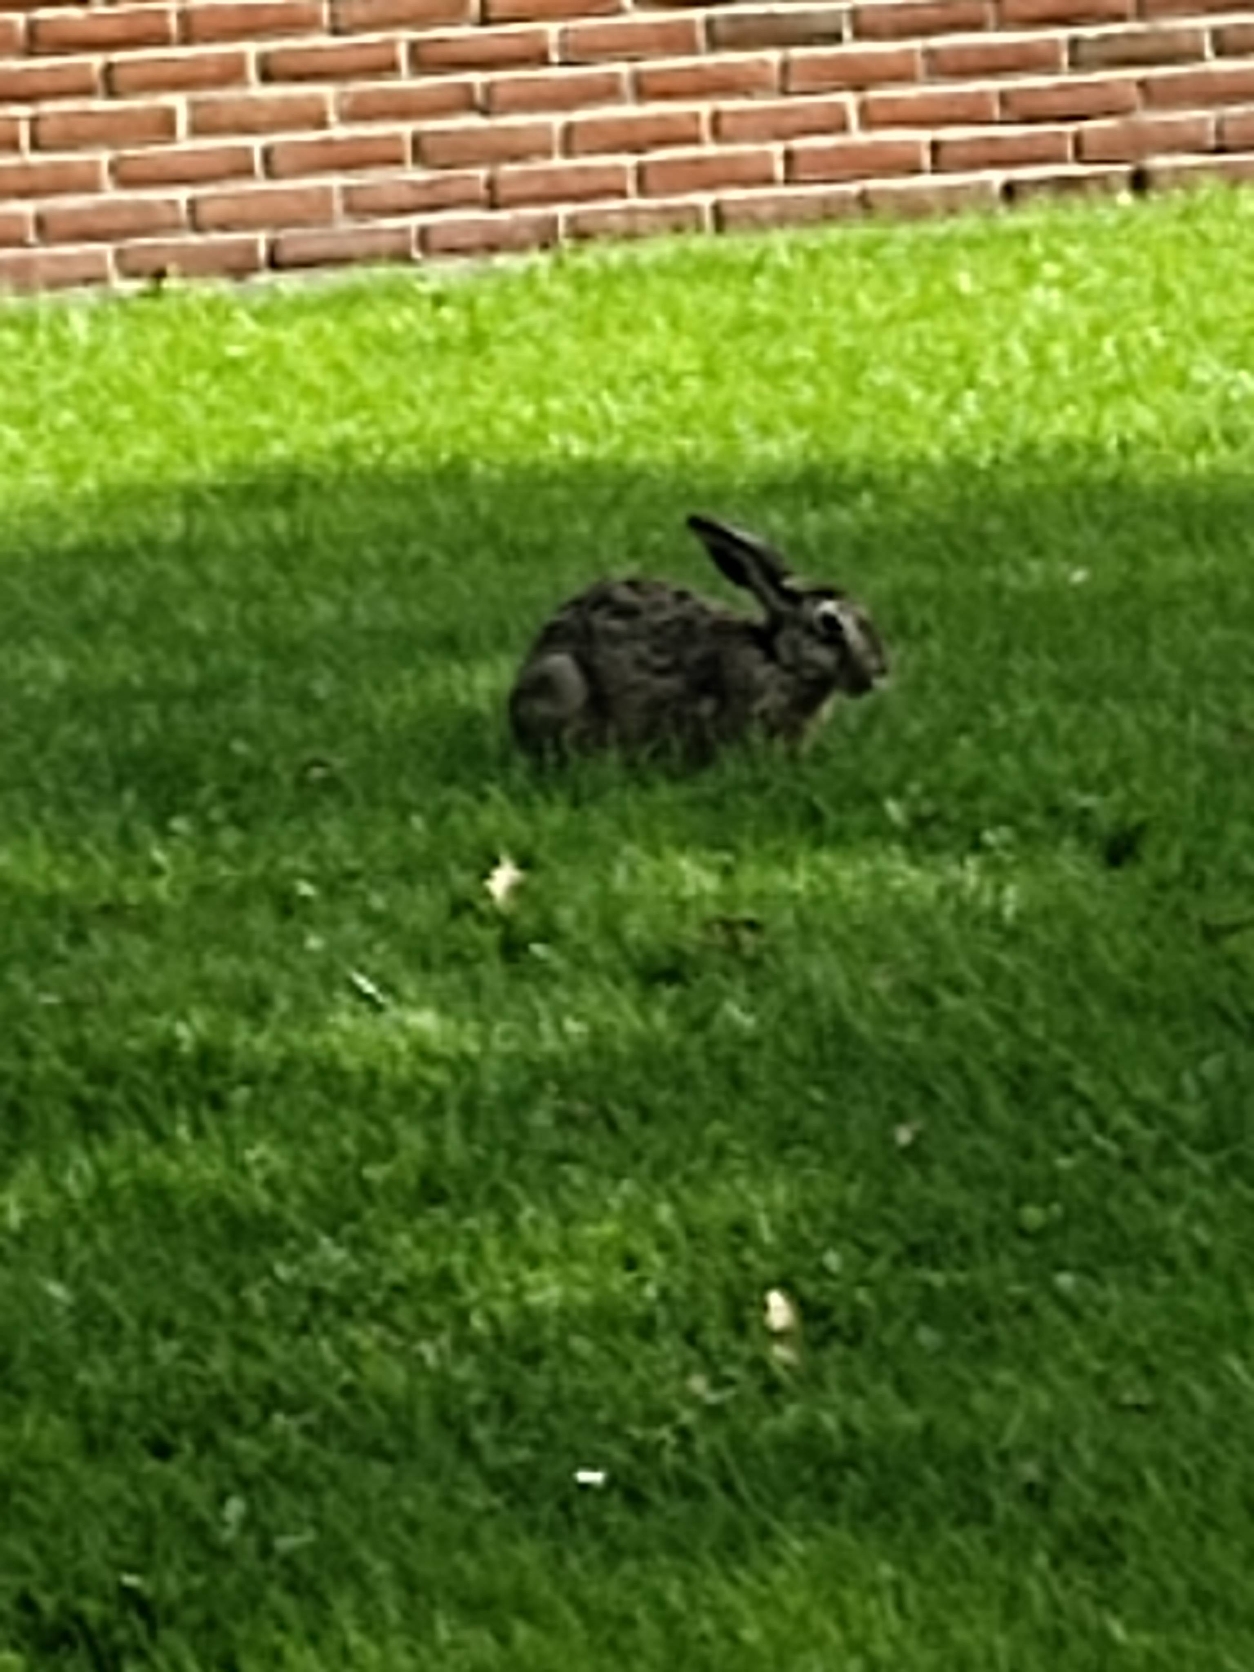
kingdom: Animalia
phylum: Chordata
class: Mammalia
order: Lagomorpha
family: Leporidae
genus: Lepus
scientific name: Lepus europaeus
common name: Hare
